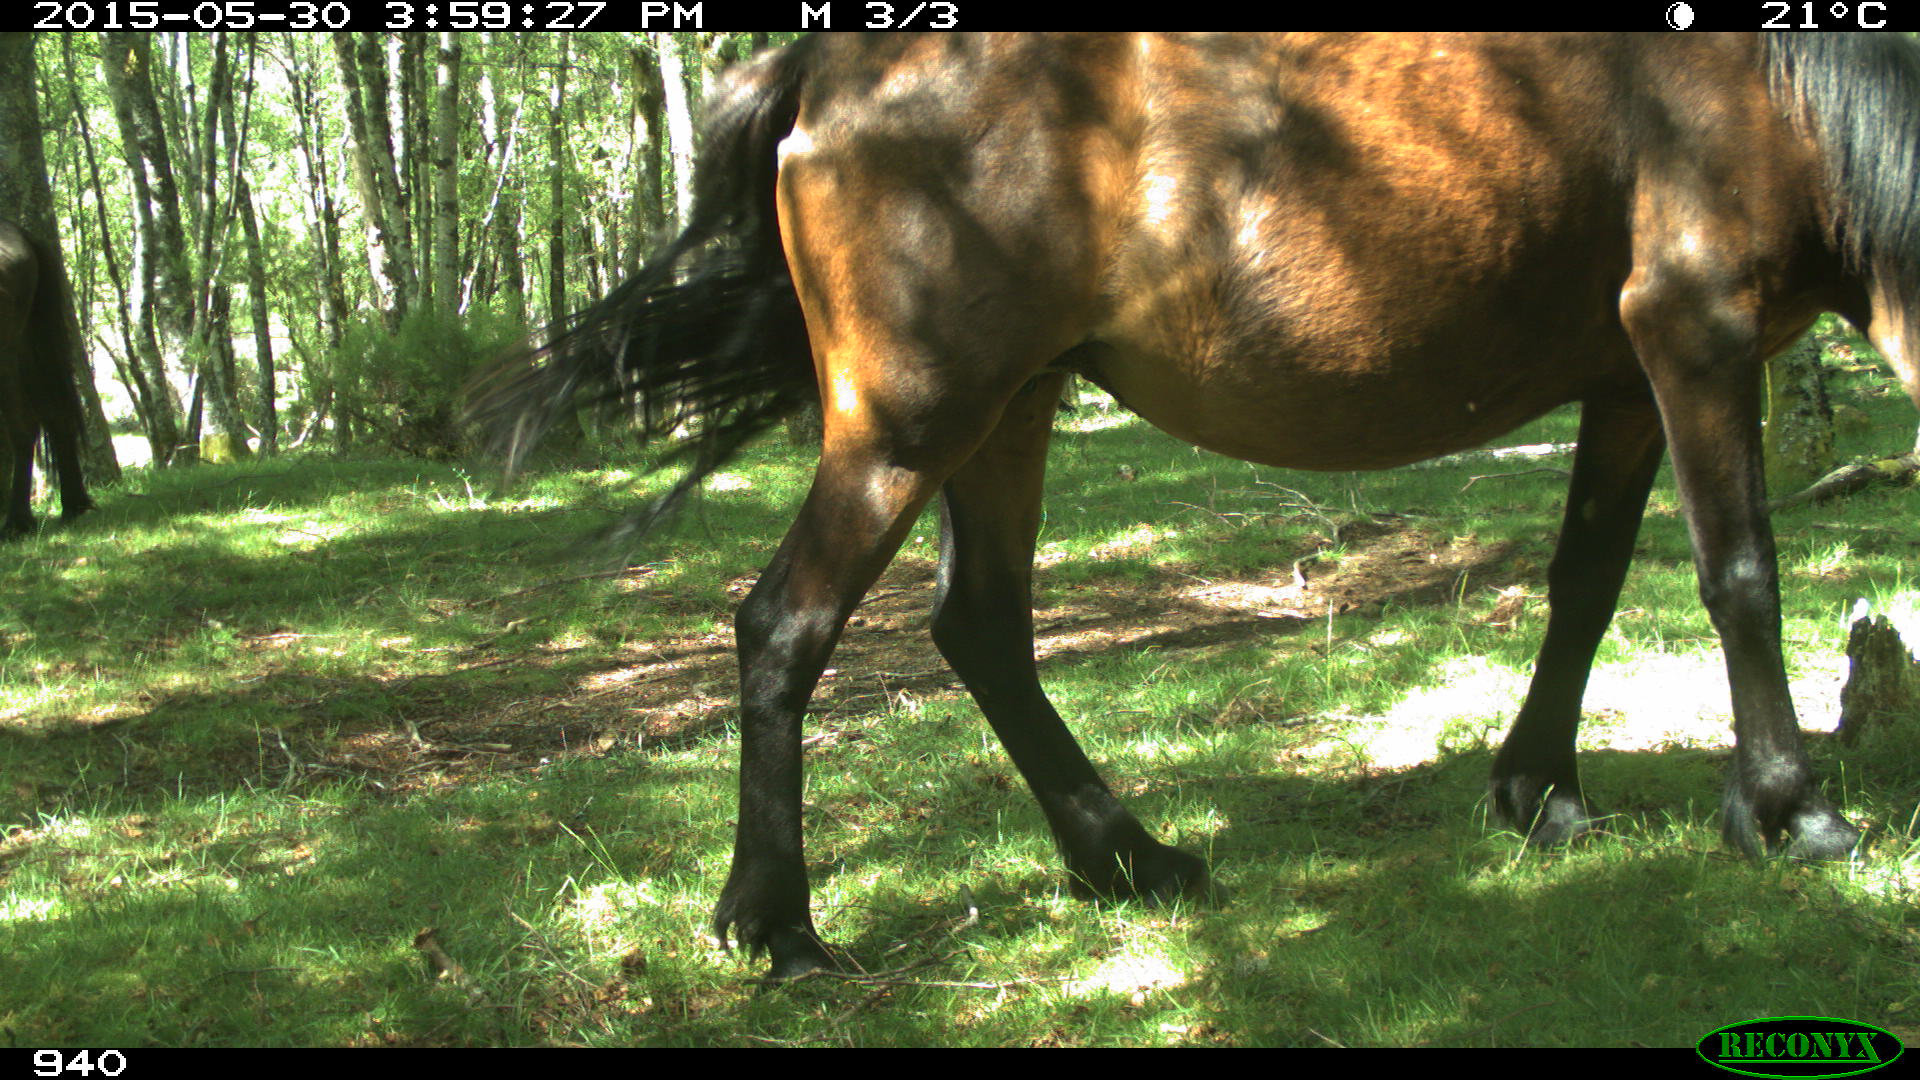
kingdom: Animalia
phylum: Chordata
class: Mammalia
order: Perissodactyla
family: Equidae
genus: Equus
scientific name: Equus caballus
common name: Horse
